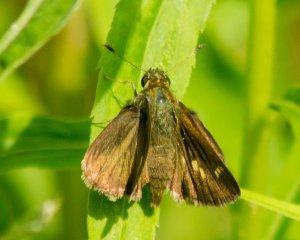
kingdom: Animalia
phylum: Arthropoda
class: Insecta
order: Lepidoptera
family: Hesperiidae
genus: Polites
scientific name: Polites egeremet
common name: Northern Broken-Dash
